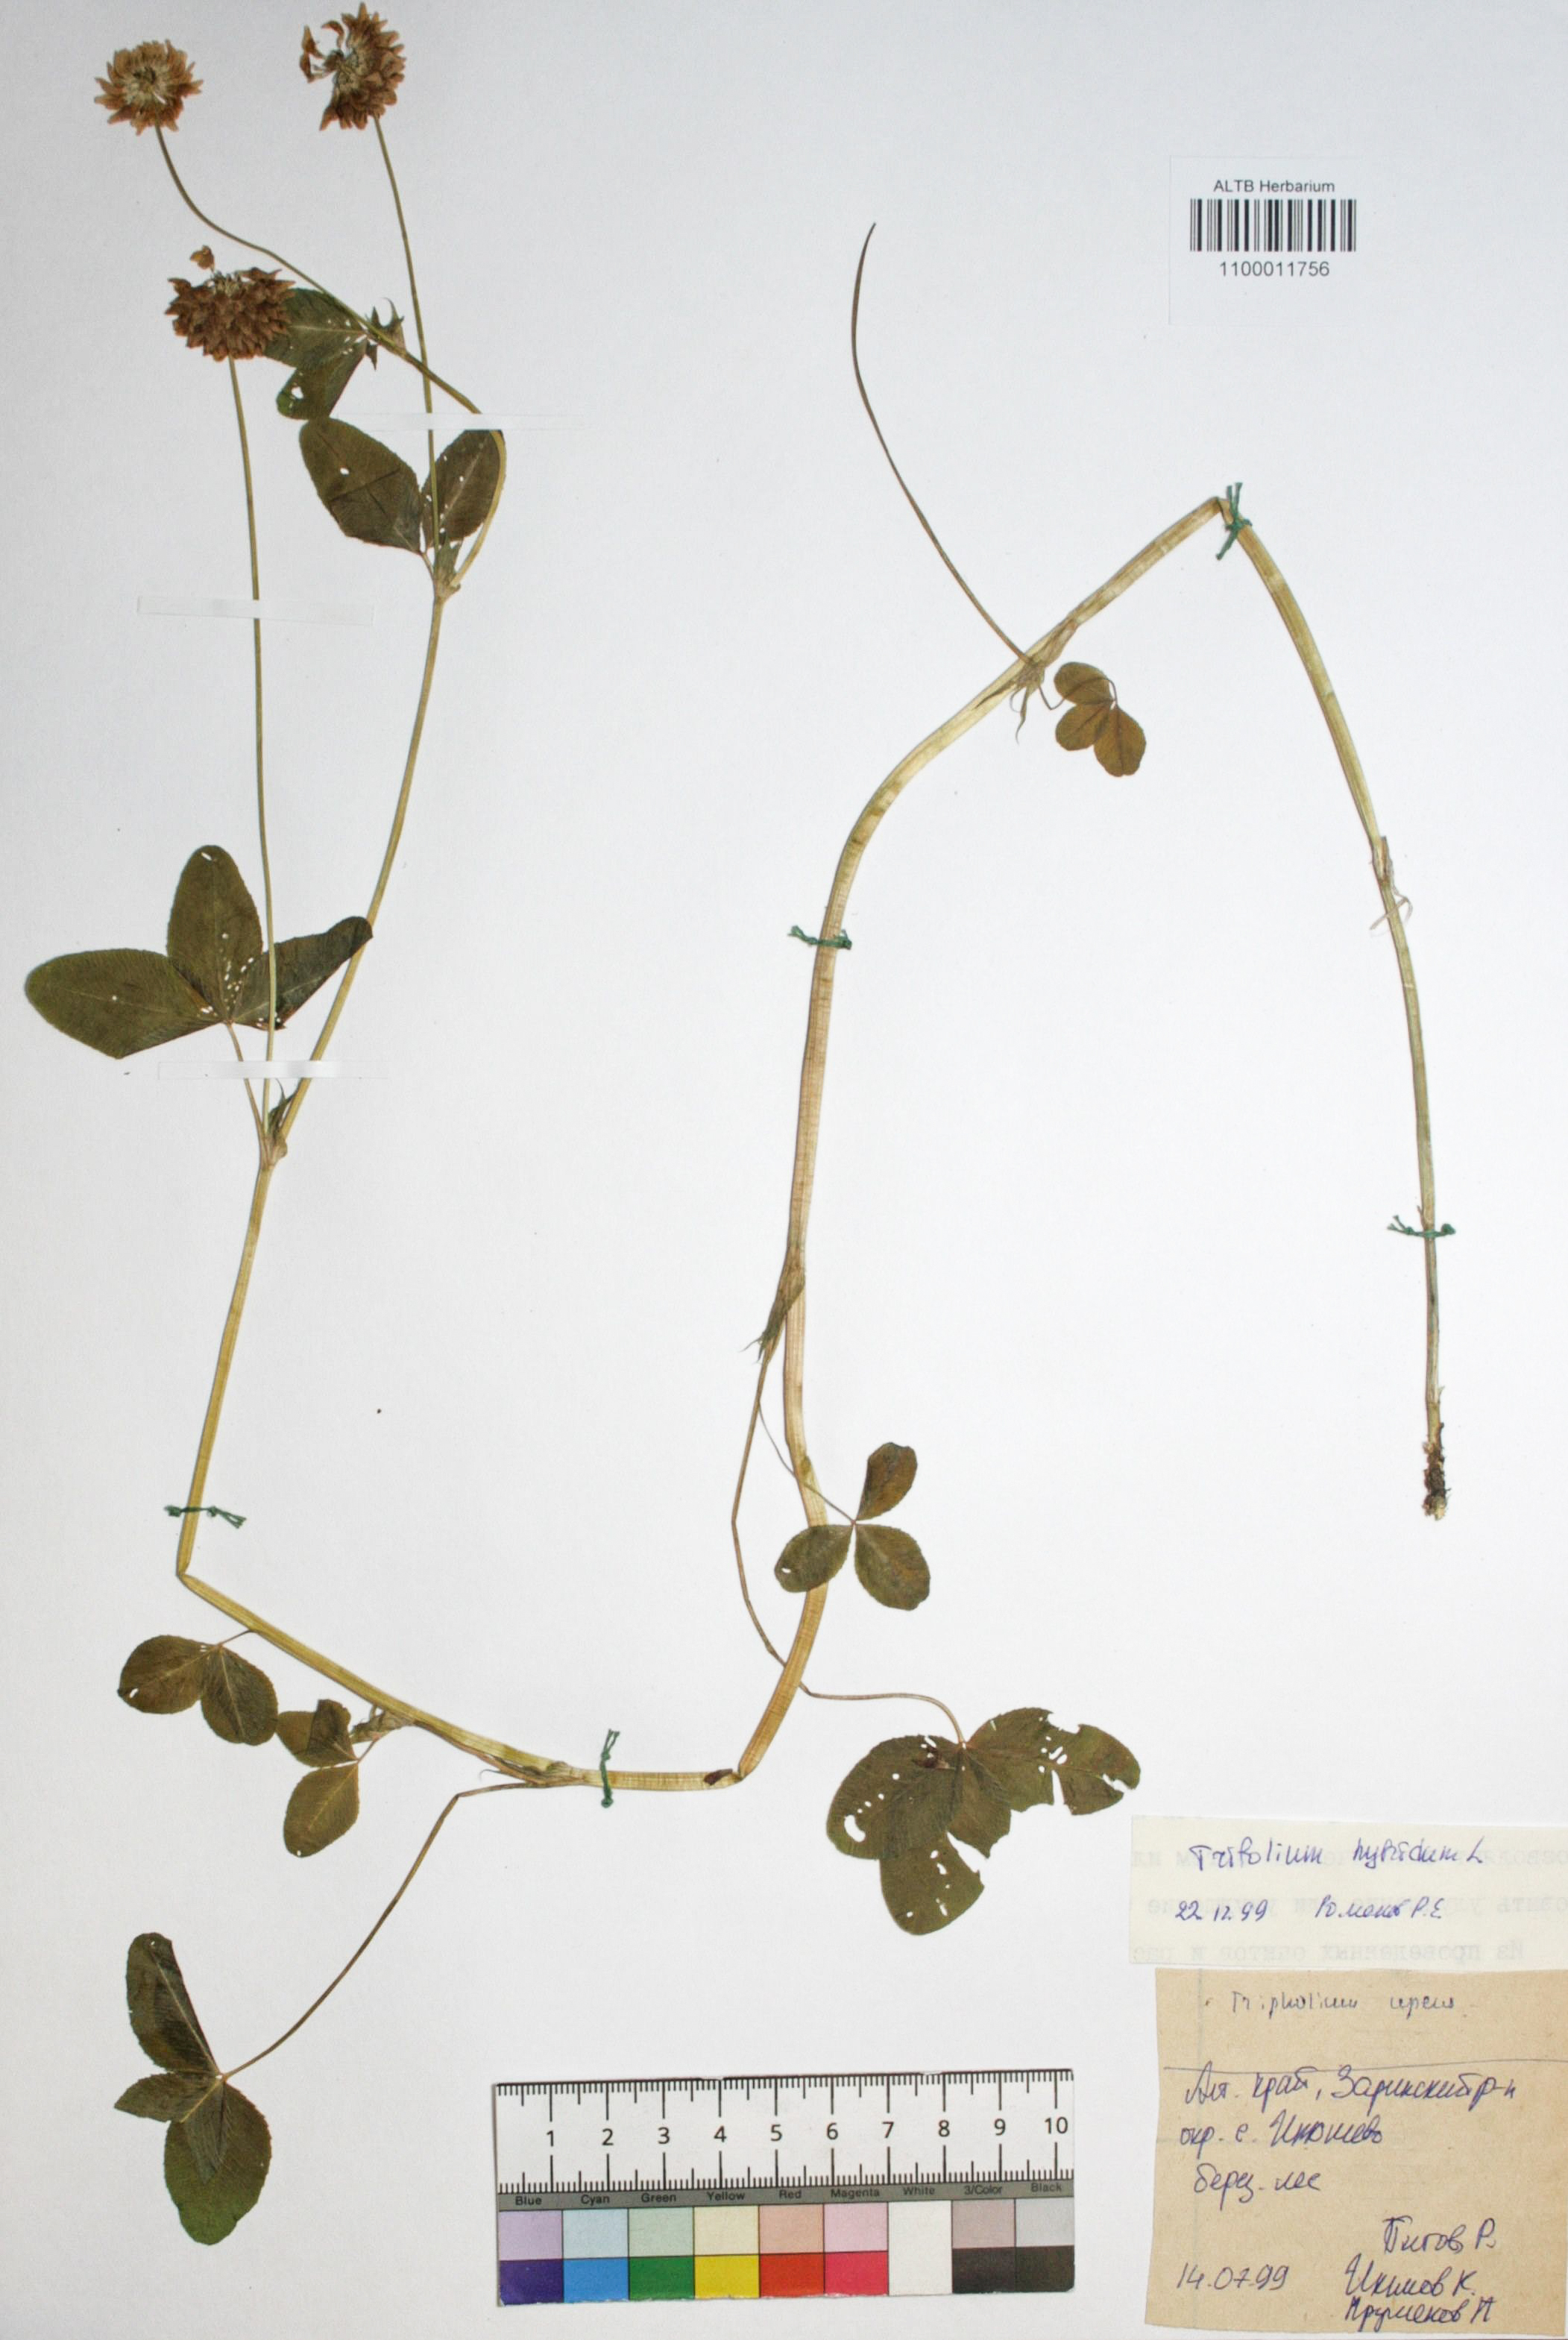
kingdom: Plantae
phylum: Tracheophyta
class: Magnoliopsida
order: Fabales
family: Fabaceae
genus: Trifolium
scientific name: Trifolium hybridum
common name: Alsike clover
